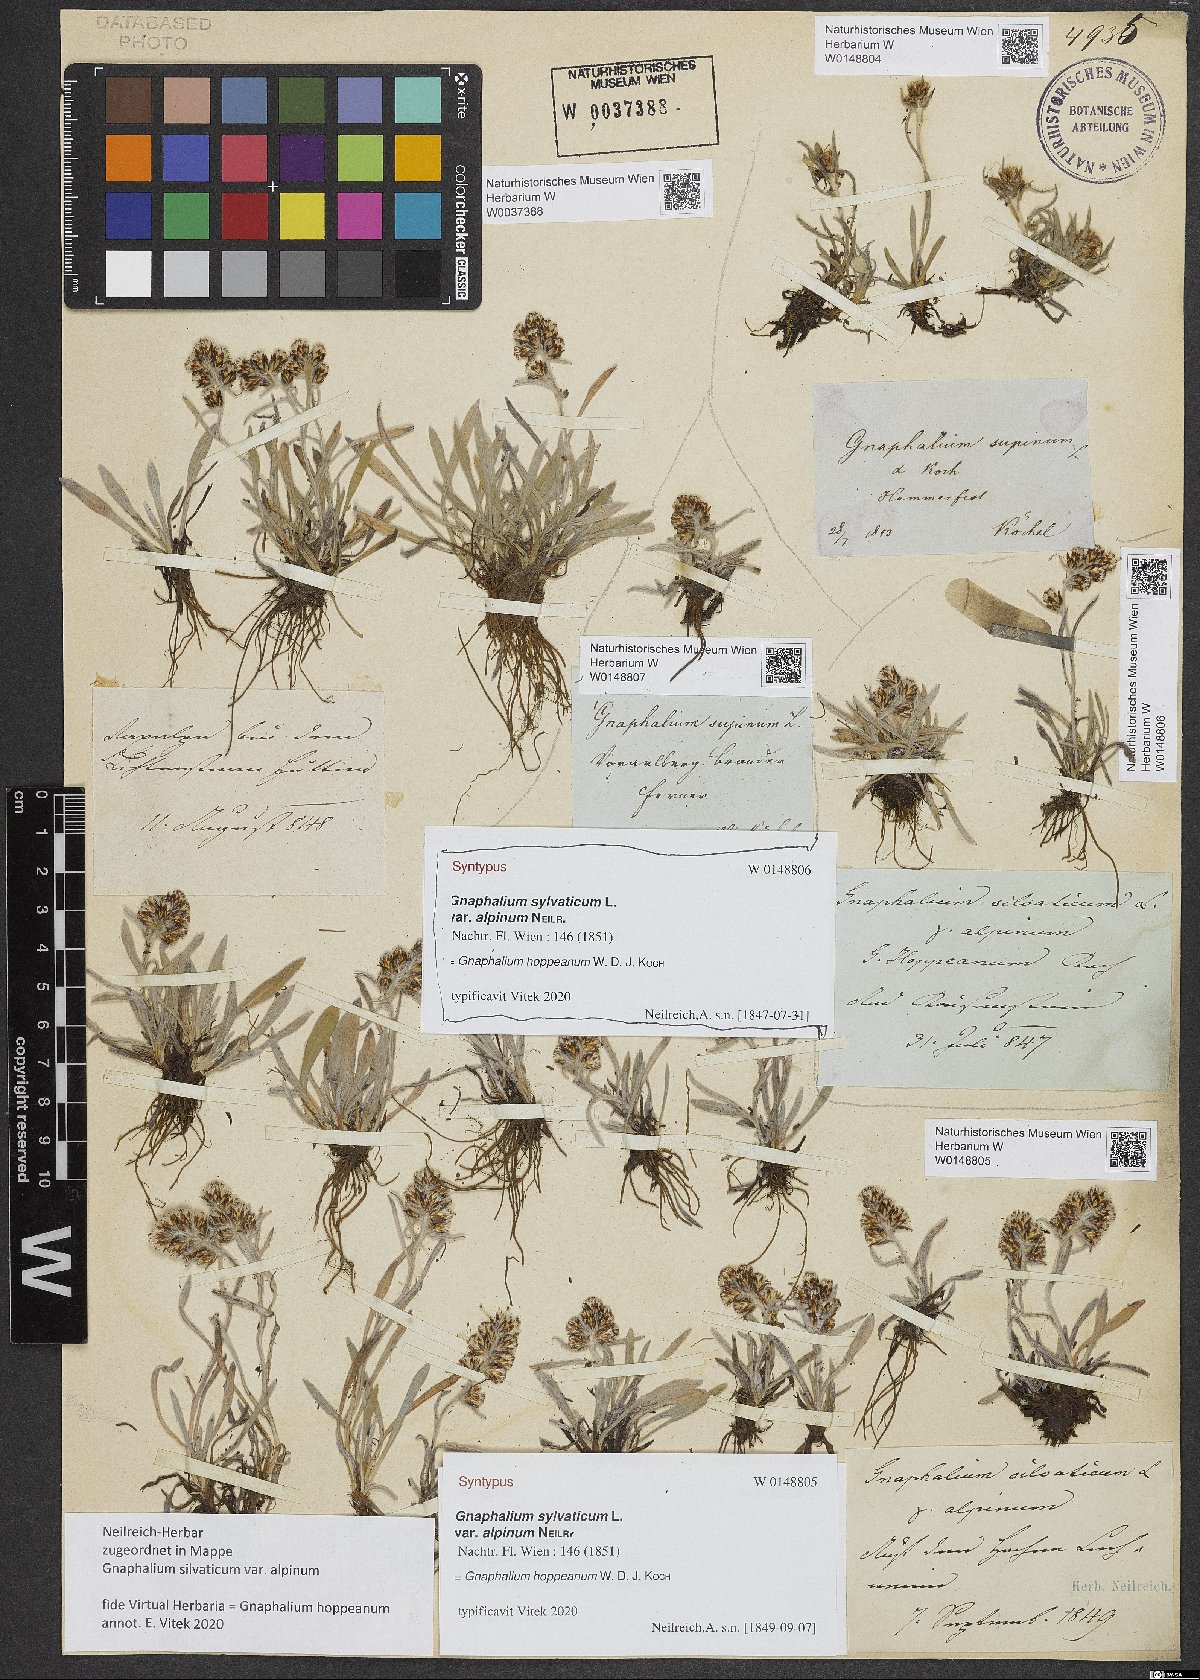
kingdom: Plantae
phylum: Tracheophyta
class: Magnoliopsida
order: Asterales
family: Asteraceae
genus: Gnaphalium
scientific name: Gnaphalium sylvaticum
